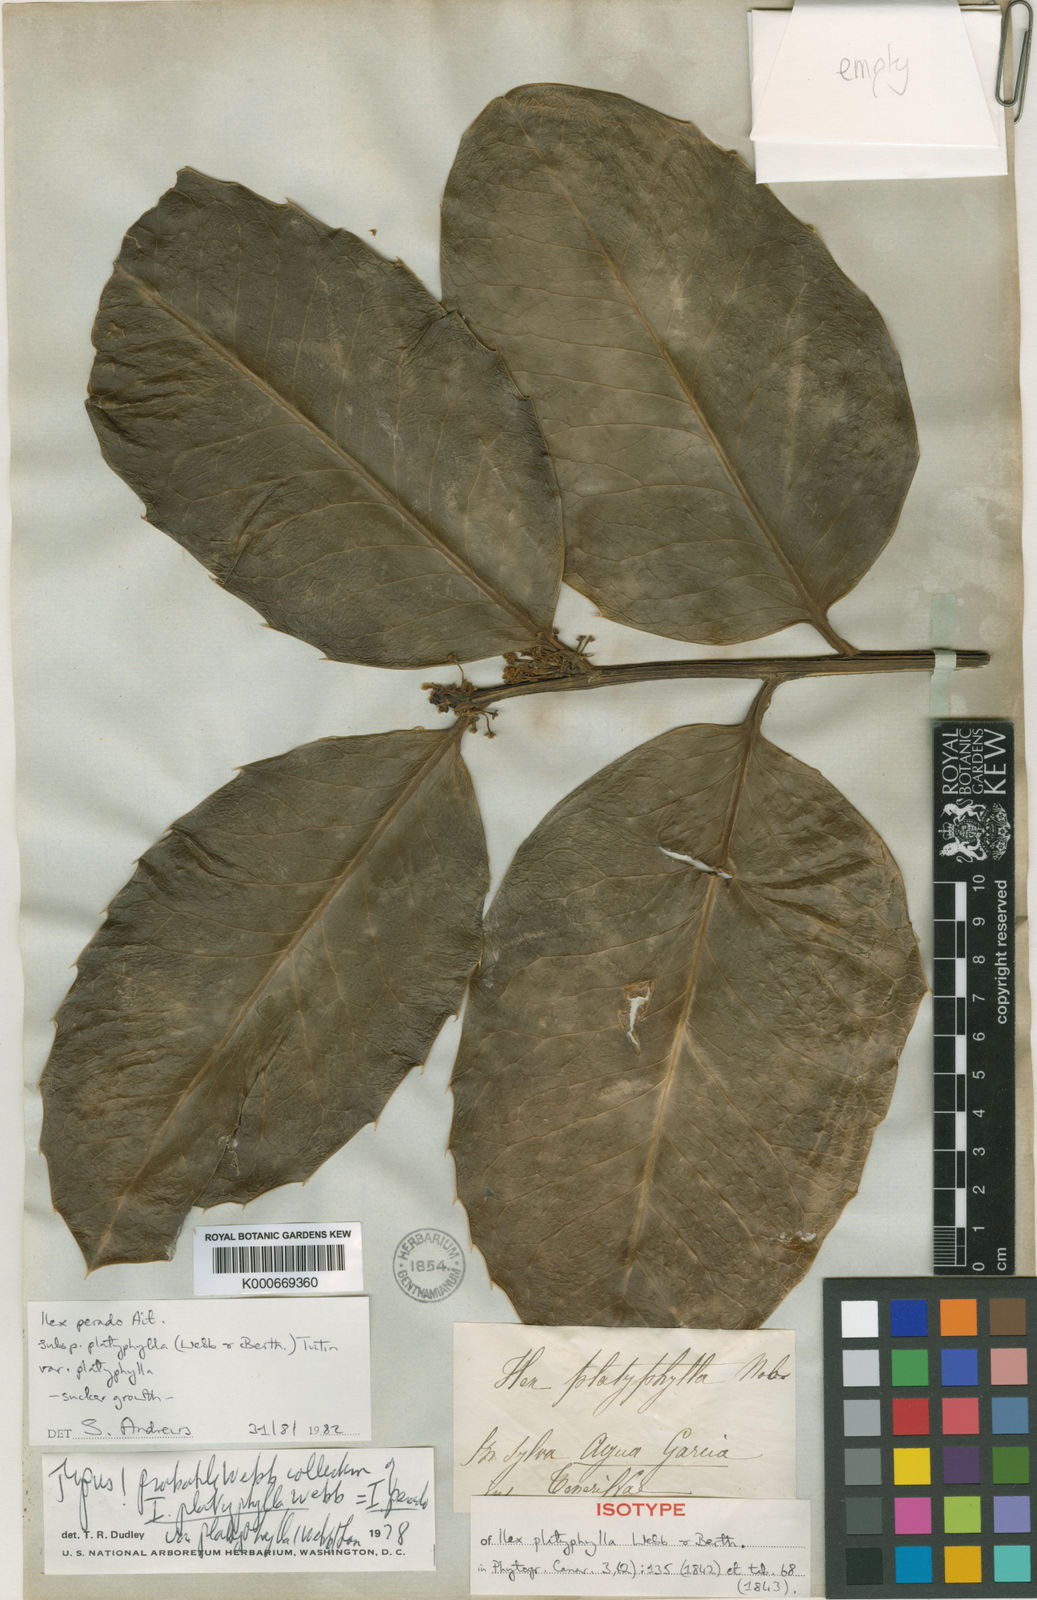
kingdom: Plantae
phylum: Tracheophyta
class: Magnoliopsida
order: Aquifoliales
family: Aquifoliaceae
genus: Ilex
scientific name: Ilex perado
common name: Madeira holly
